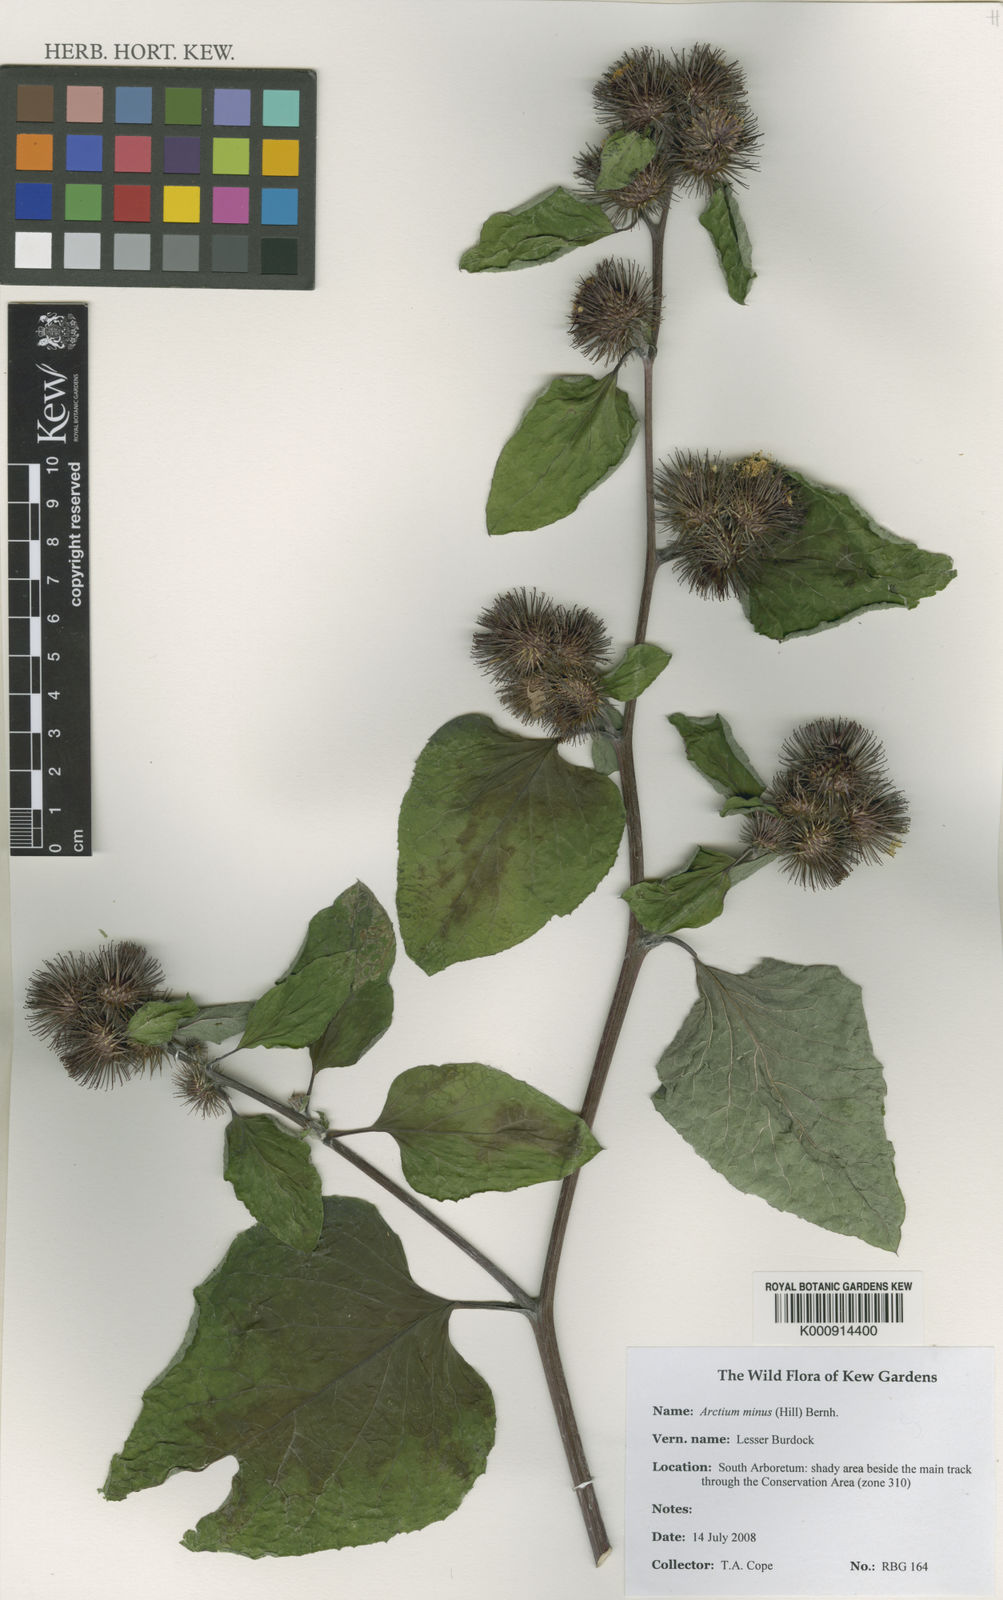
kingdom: Plantae
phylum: Tracheophyta
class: Magnoliopsida
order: Asterales
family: Asteraceae
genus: Arctium
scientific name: Arctium minus
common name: Lesser burdock
